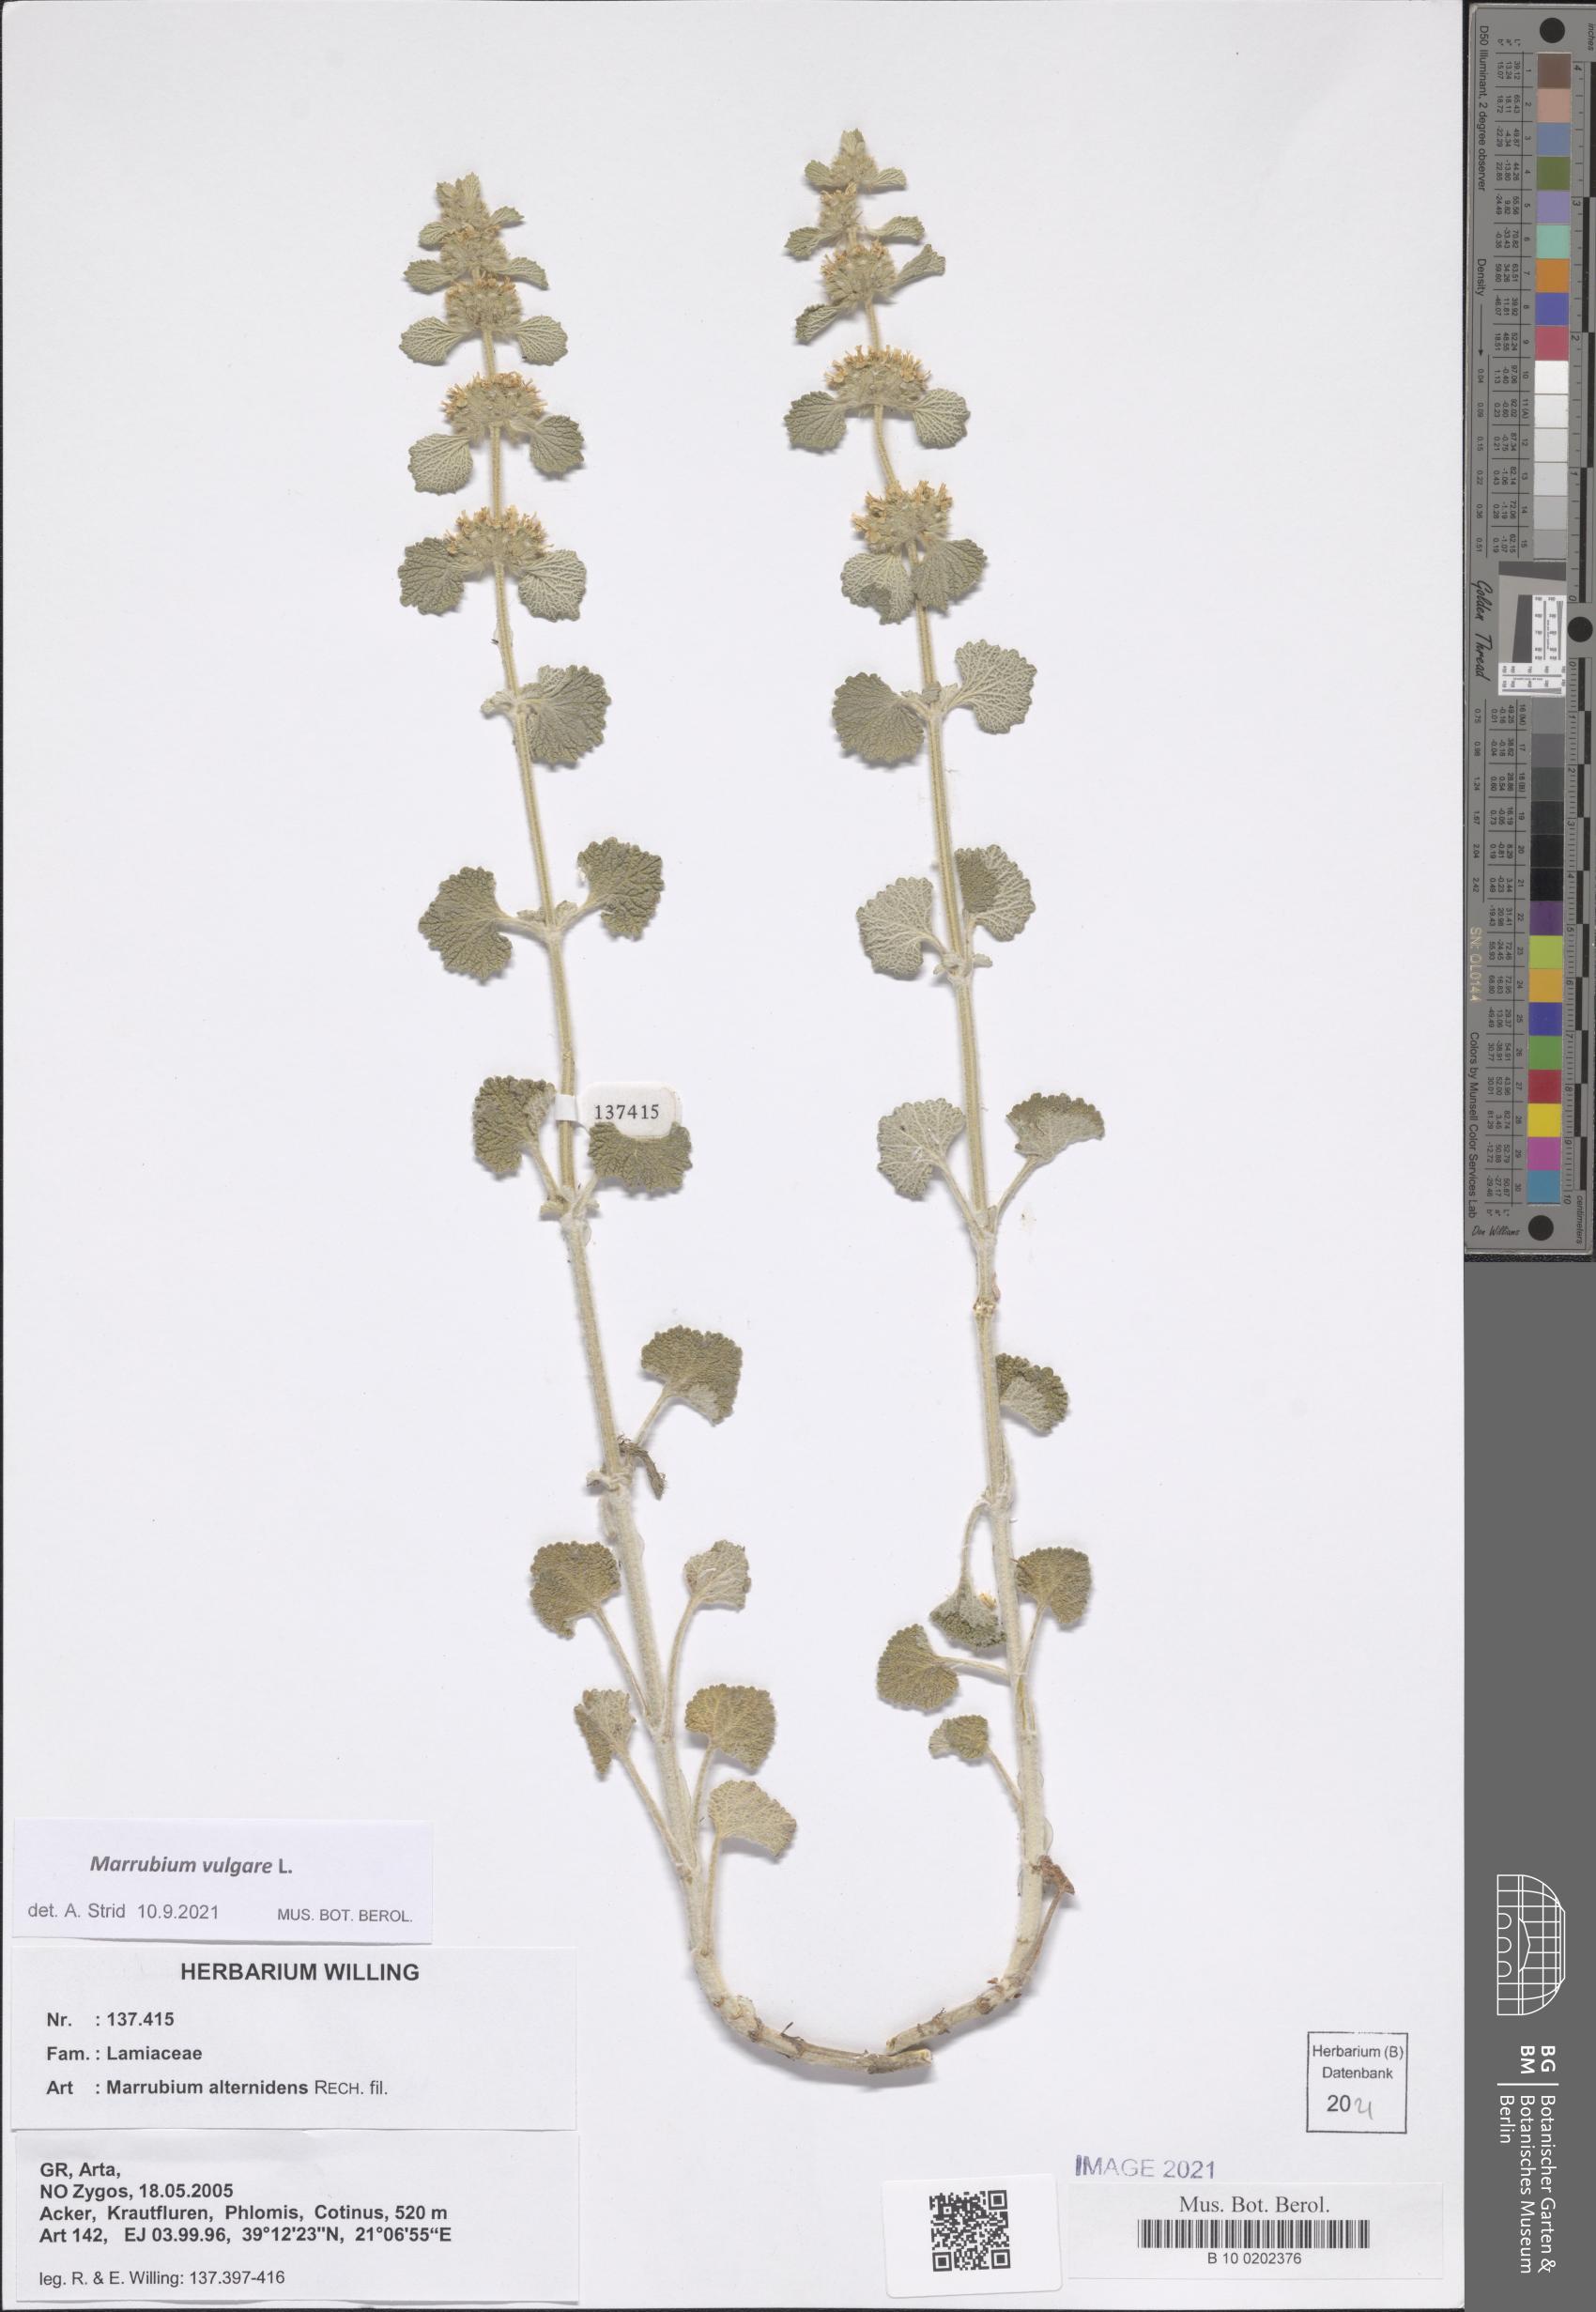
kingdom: Plantae
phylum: Tracheophyta
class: Magnoliopsida
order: Lamiales
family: Lamiaceae
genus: Marrubium
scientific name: Marrubium vulgare
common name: Horehound
